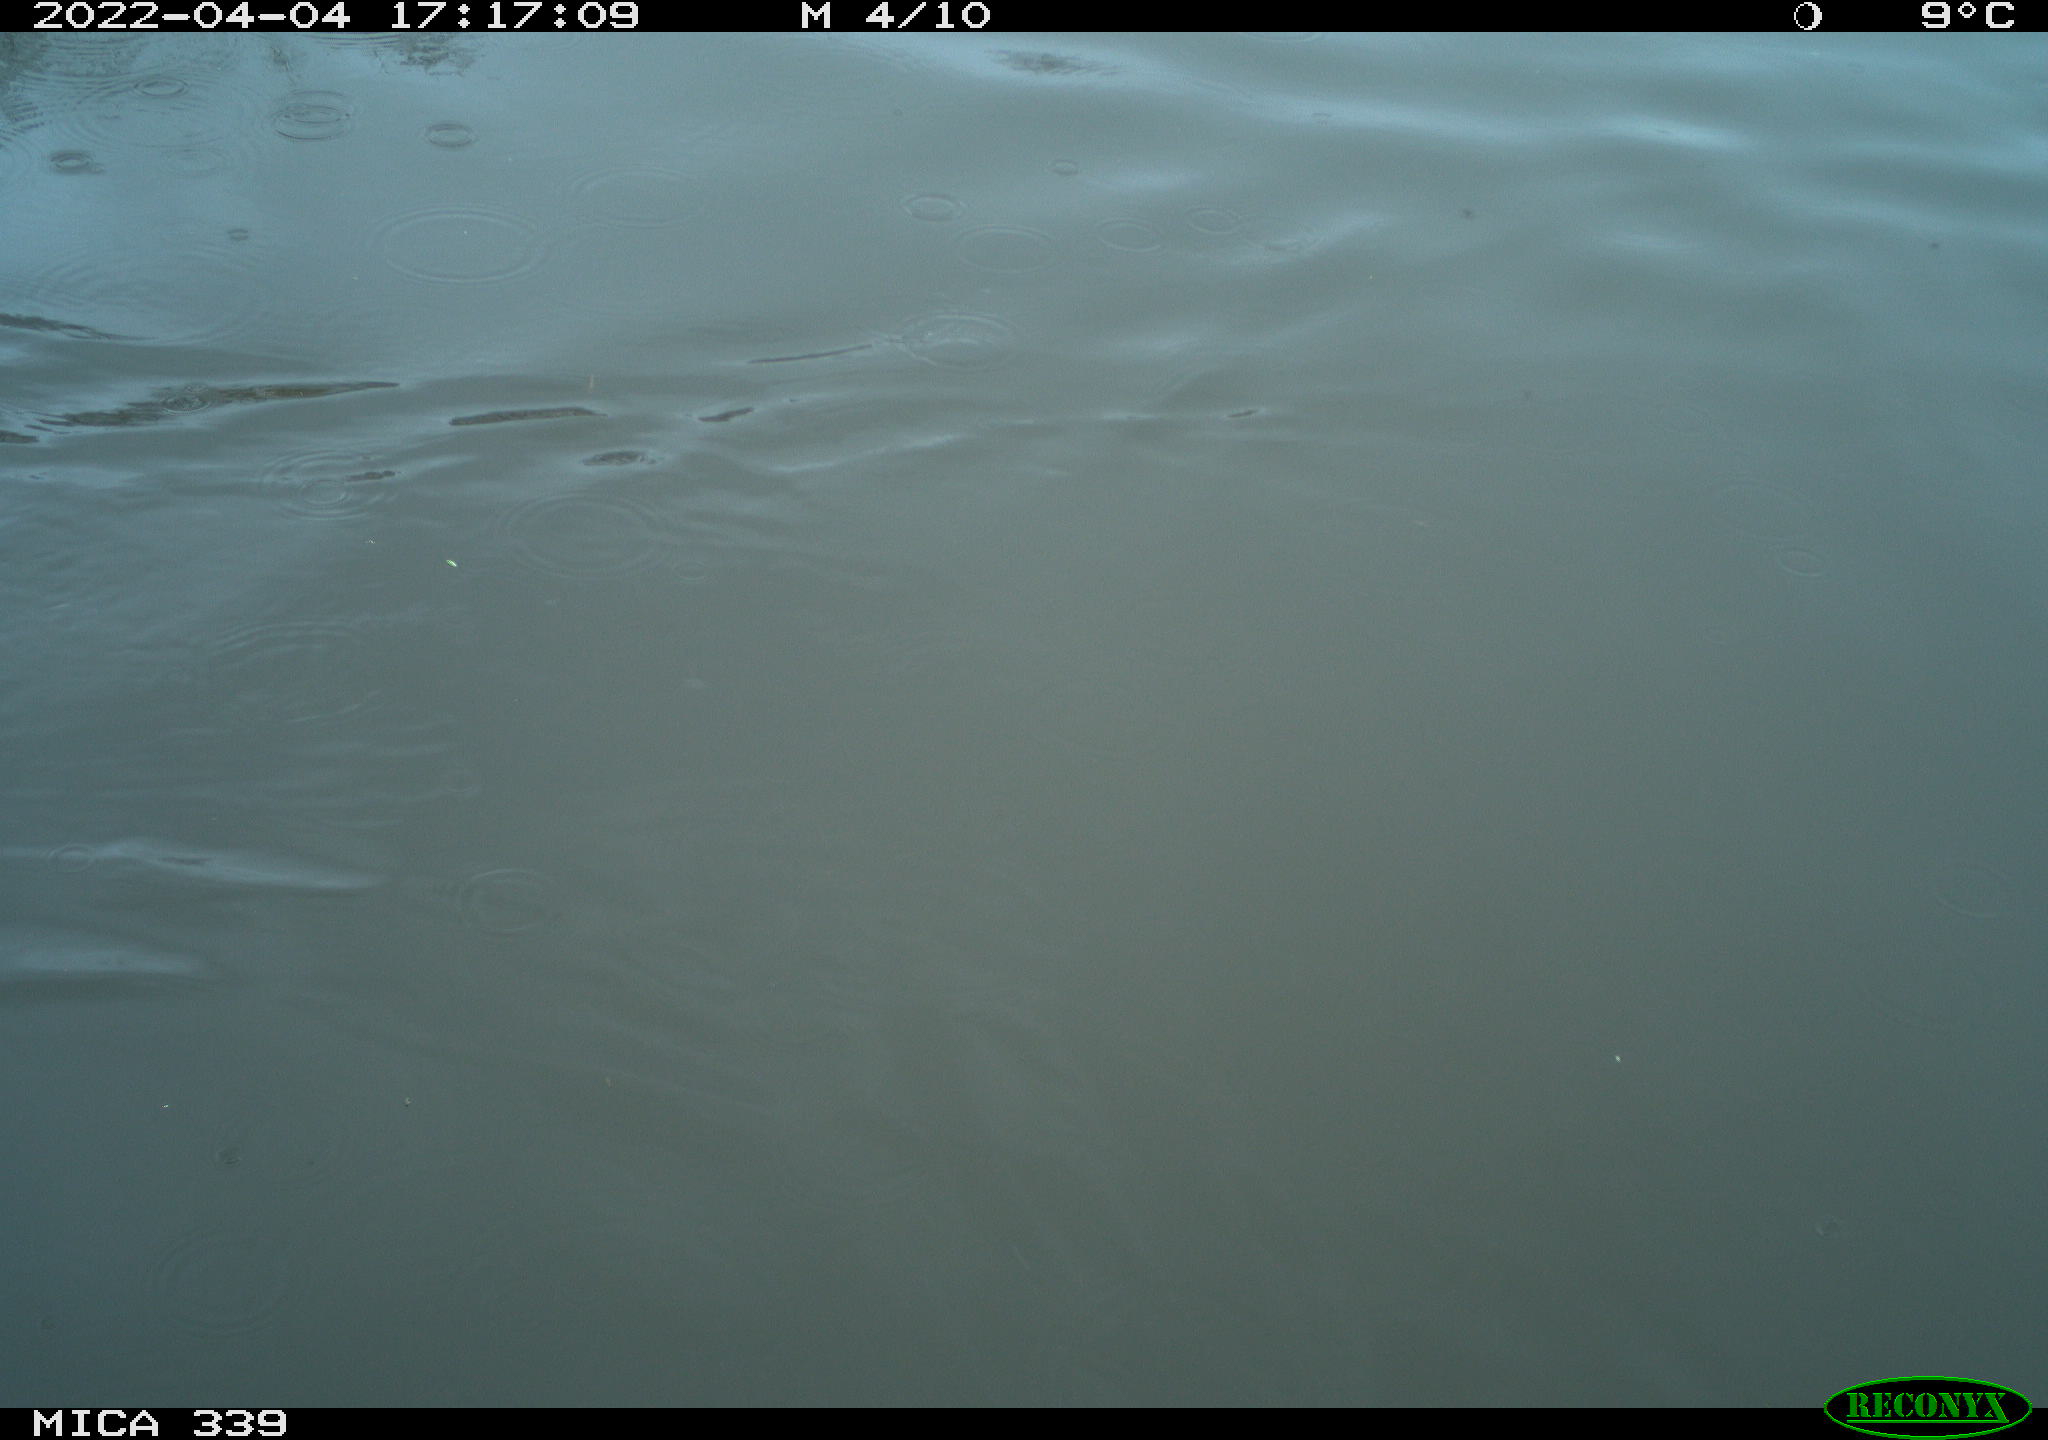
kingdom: Animalia
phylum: Chordata
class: Aves
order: Anseriformes
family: Anatidae
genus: Anas
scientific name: Anas platyrhynchos
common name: Mallard
